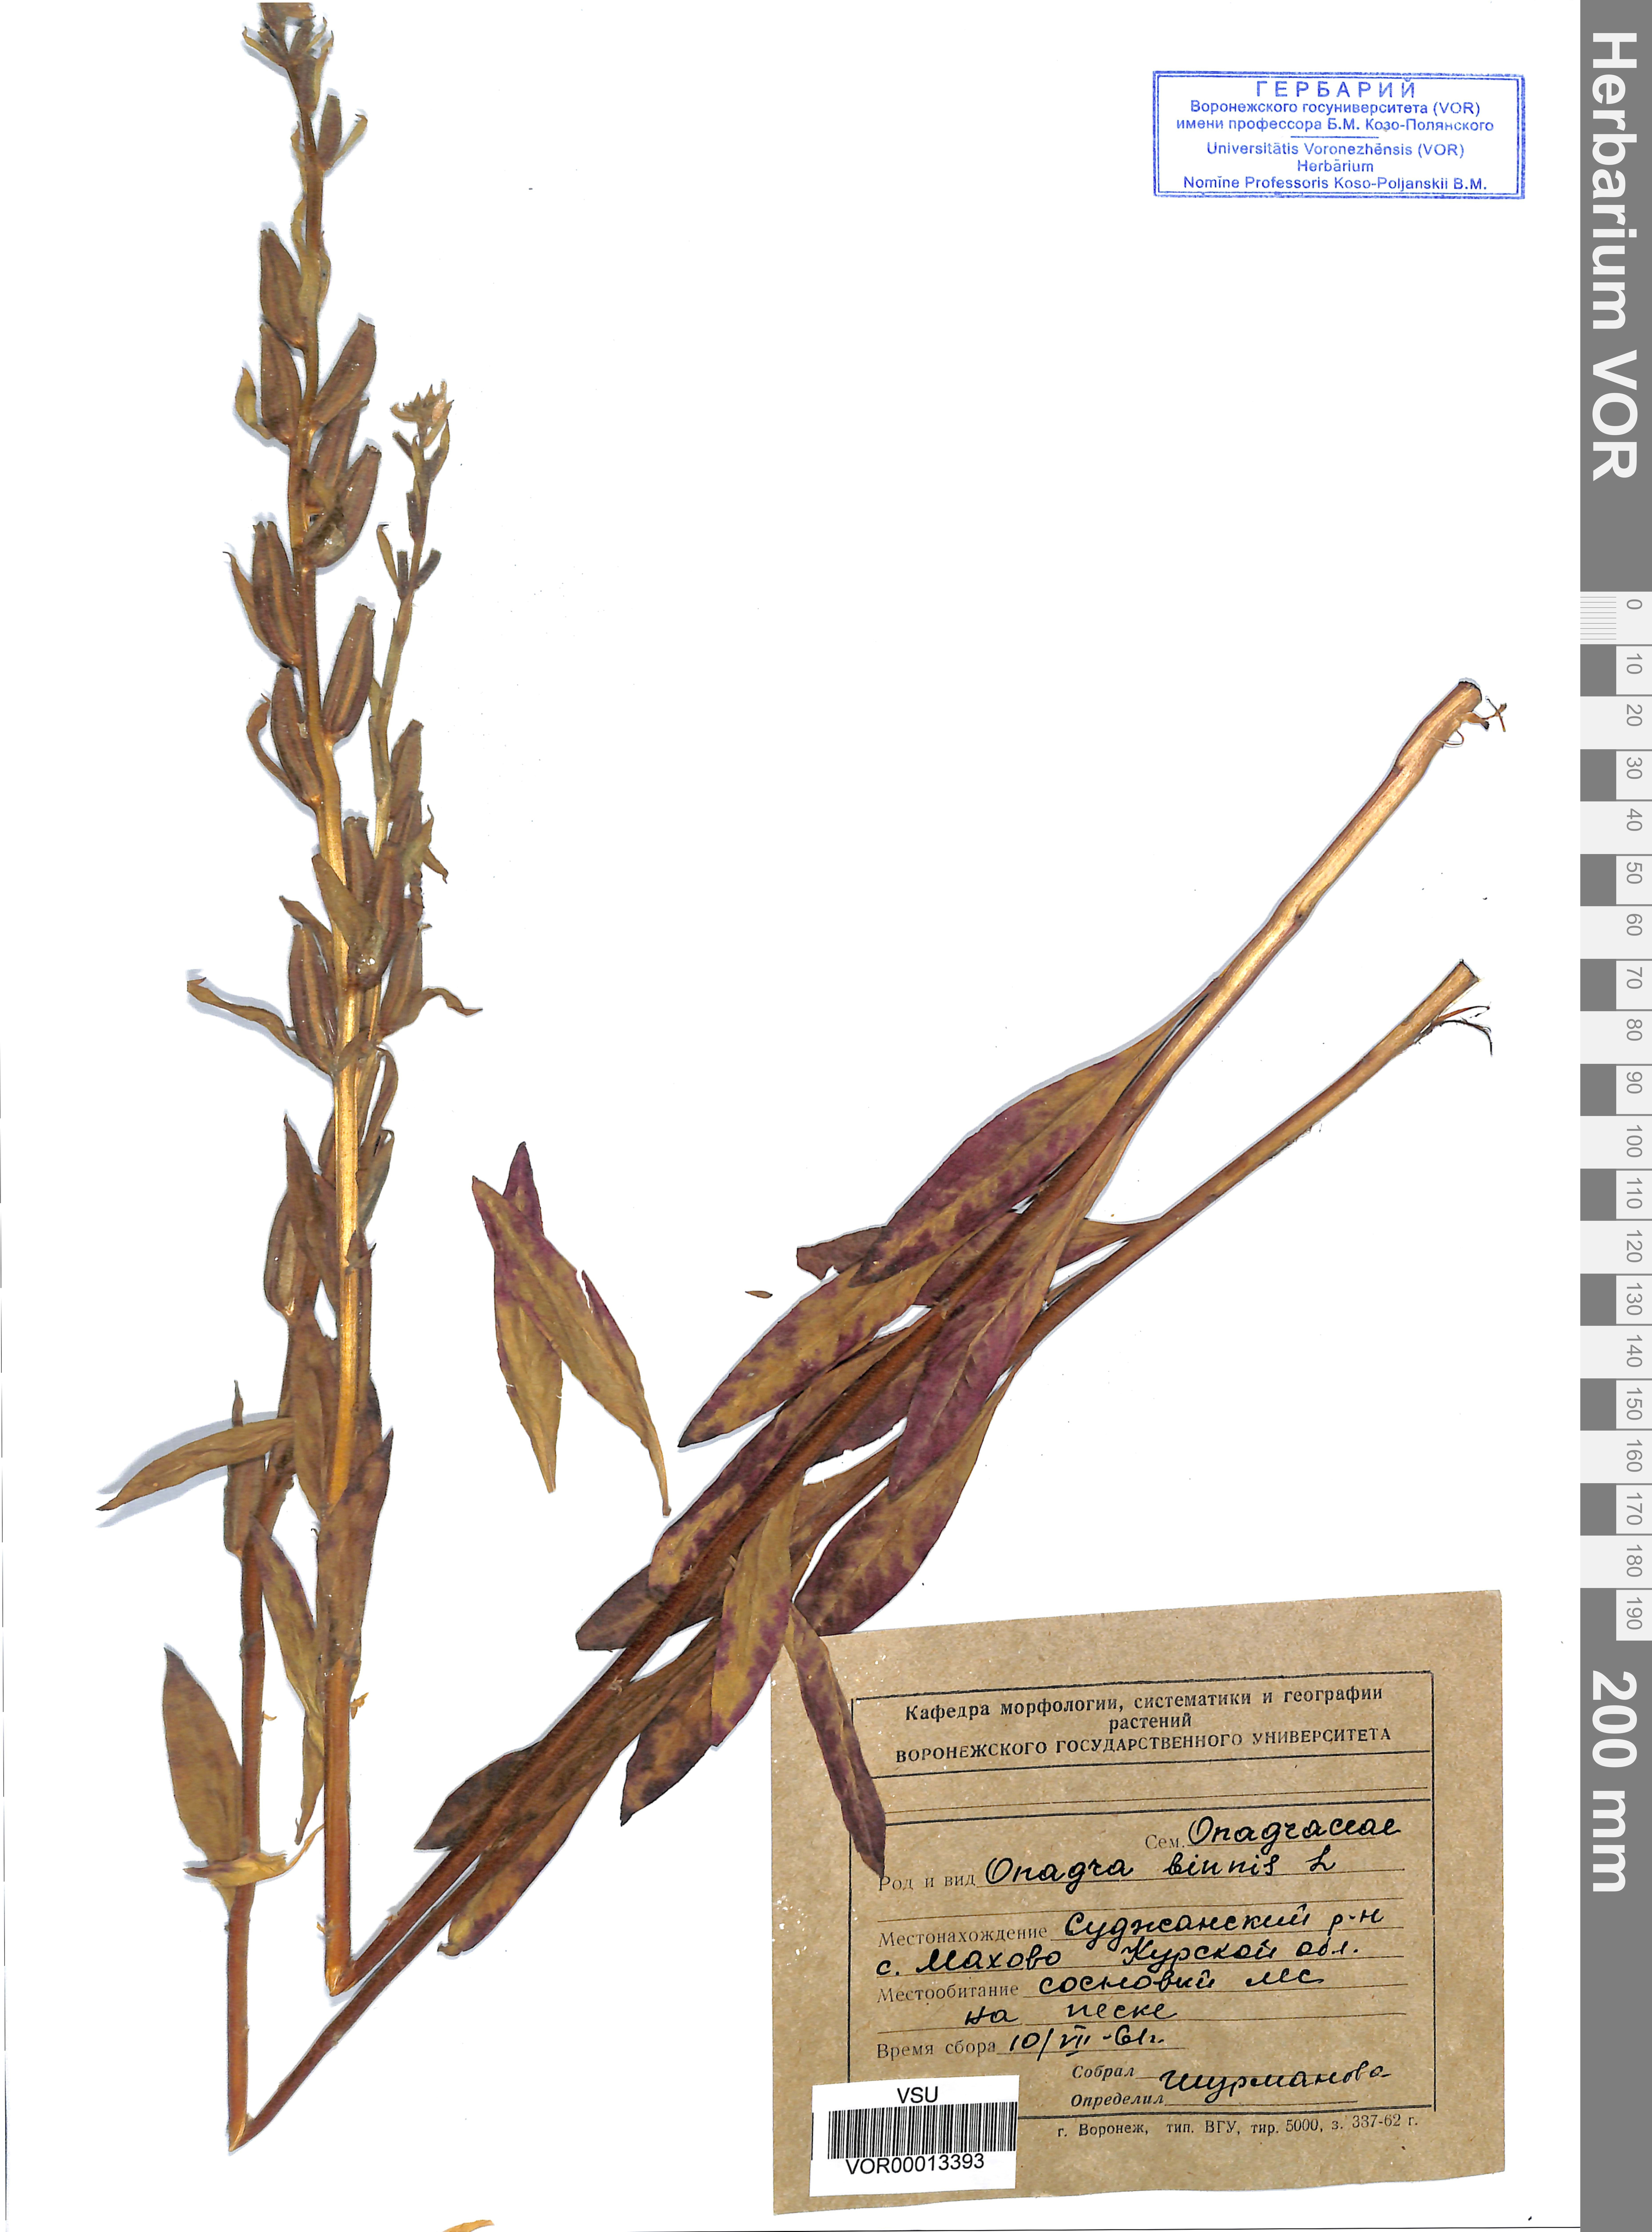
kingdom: Plantae
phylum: Tracheophyta
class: Magnoliopsida
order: Myrtales
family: Onagraceae
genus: Oenothera
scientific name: Oenothera biennis
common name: Common evening-primrose
